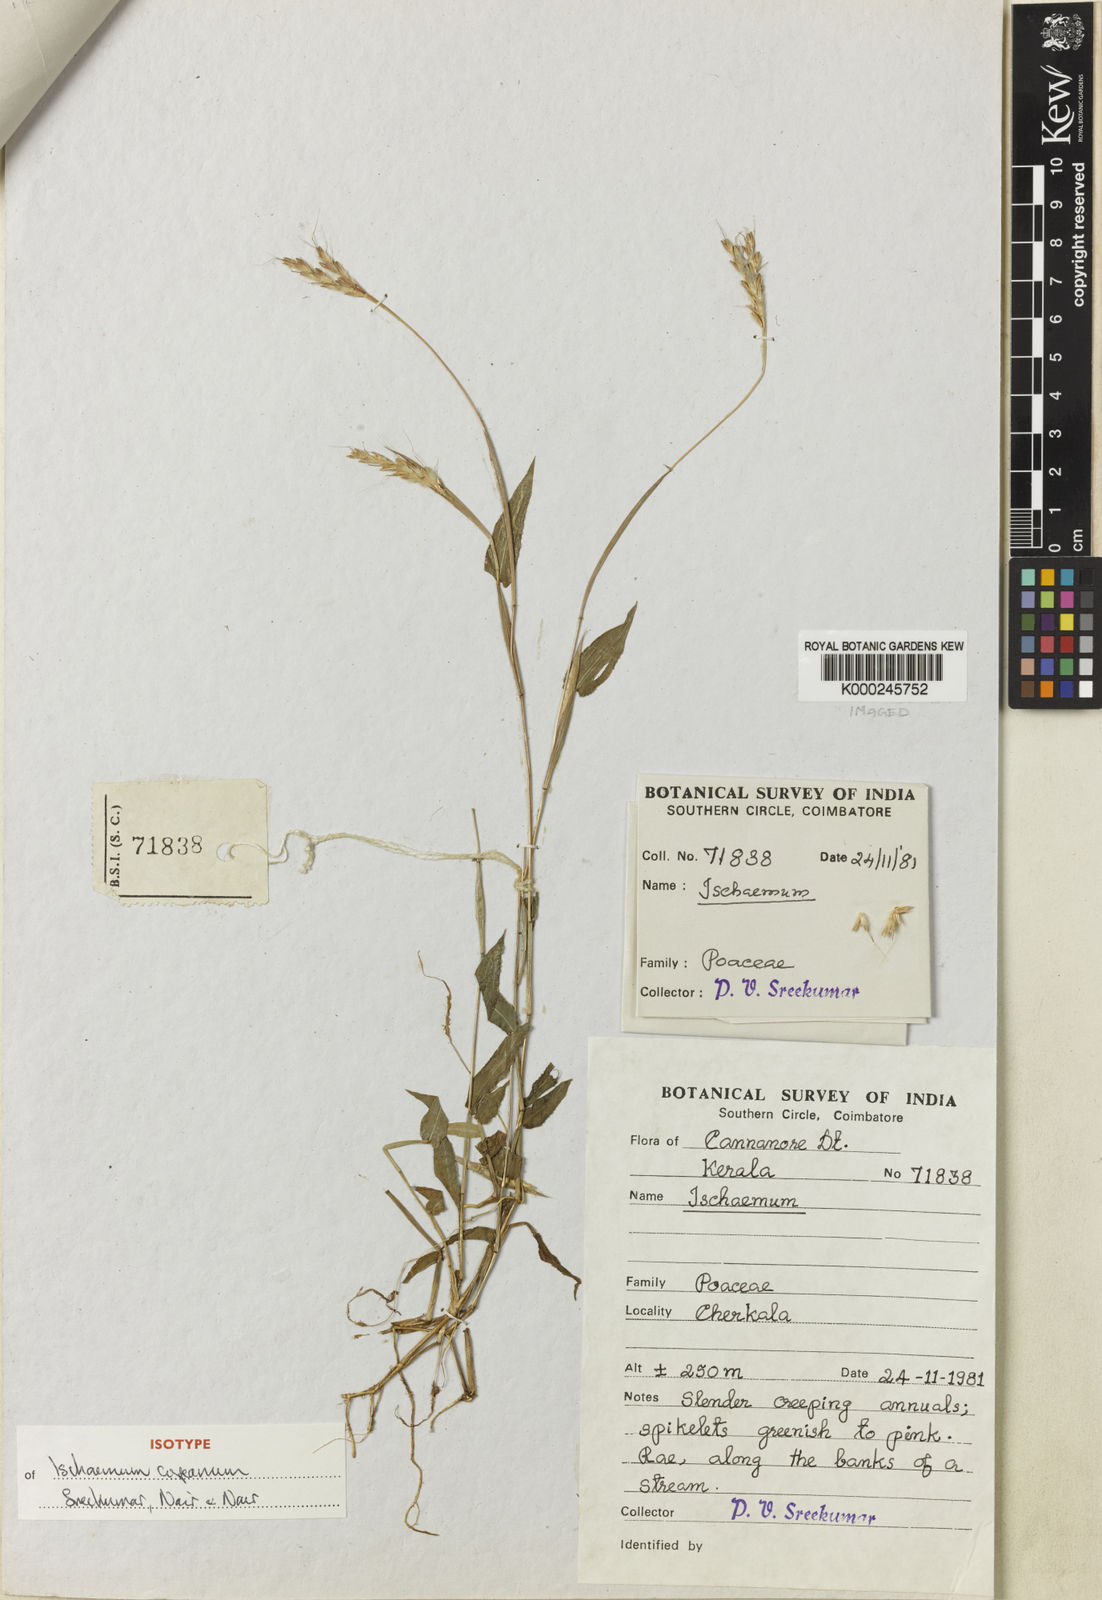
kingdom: Plantae
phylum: Tracheophyta
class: Liliopsida
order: Poales
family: Poaceae
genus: Ischaemum
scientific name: Ischaemum copeanum
